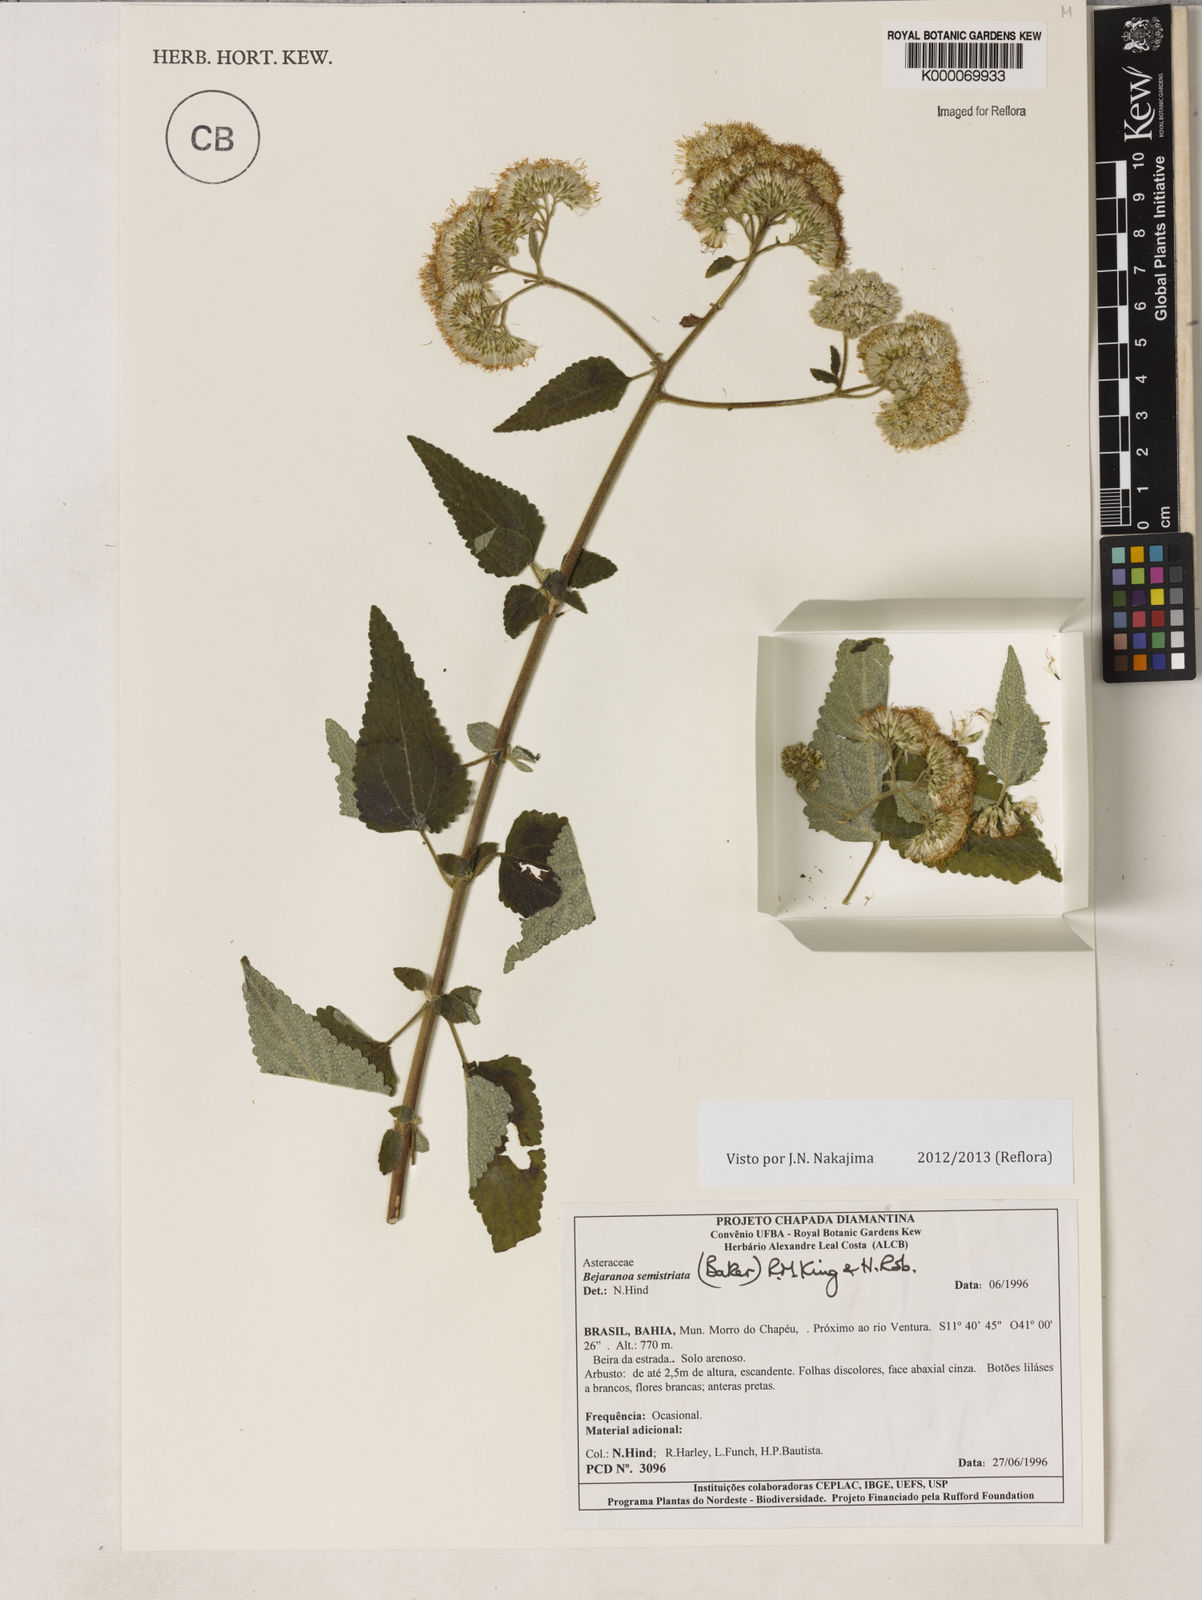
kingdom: Plantae
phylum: Tracheophyta
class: Magnoliopsida
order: Asterales
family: Asteraceae
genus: Bejaranoa
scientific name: Bejaranoa semistriata
